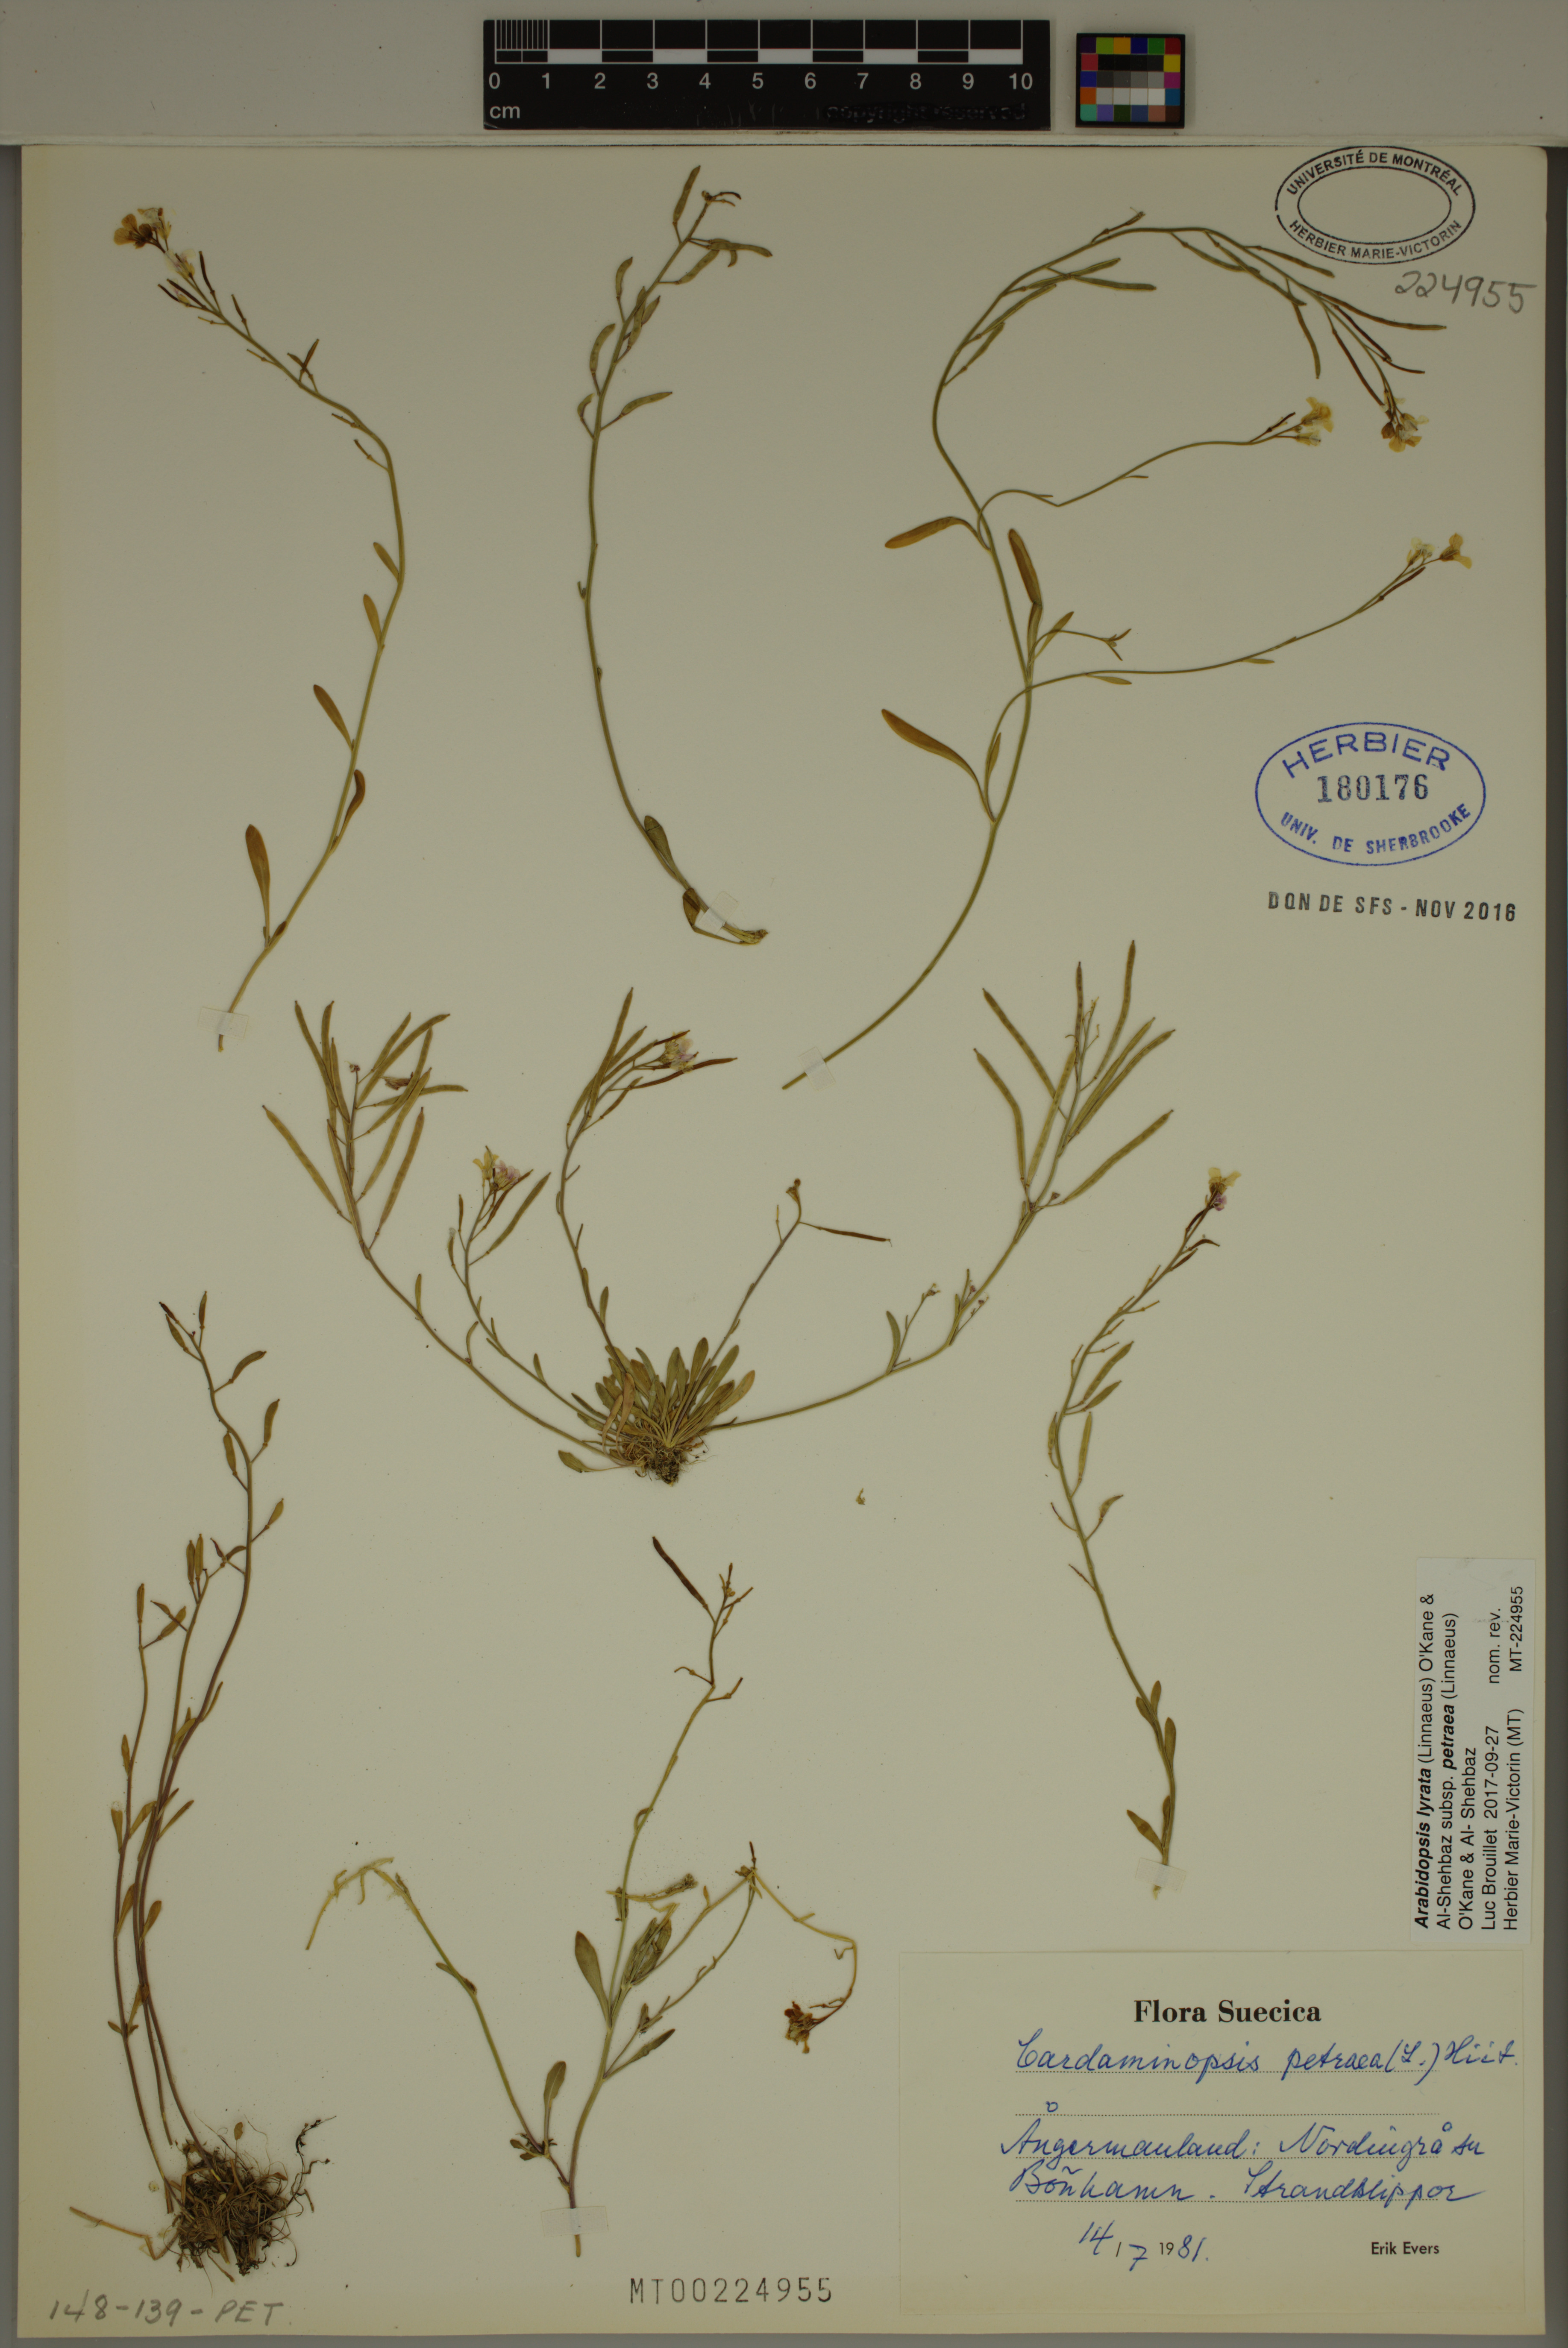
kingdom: Plantae
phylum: Tracheophyta
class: Magnoliopsida
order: Brassicales
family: Brassicaceae
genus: Arabidopsis
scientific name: Arabidopsis lyrata
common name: Lyrate rockcress
